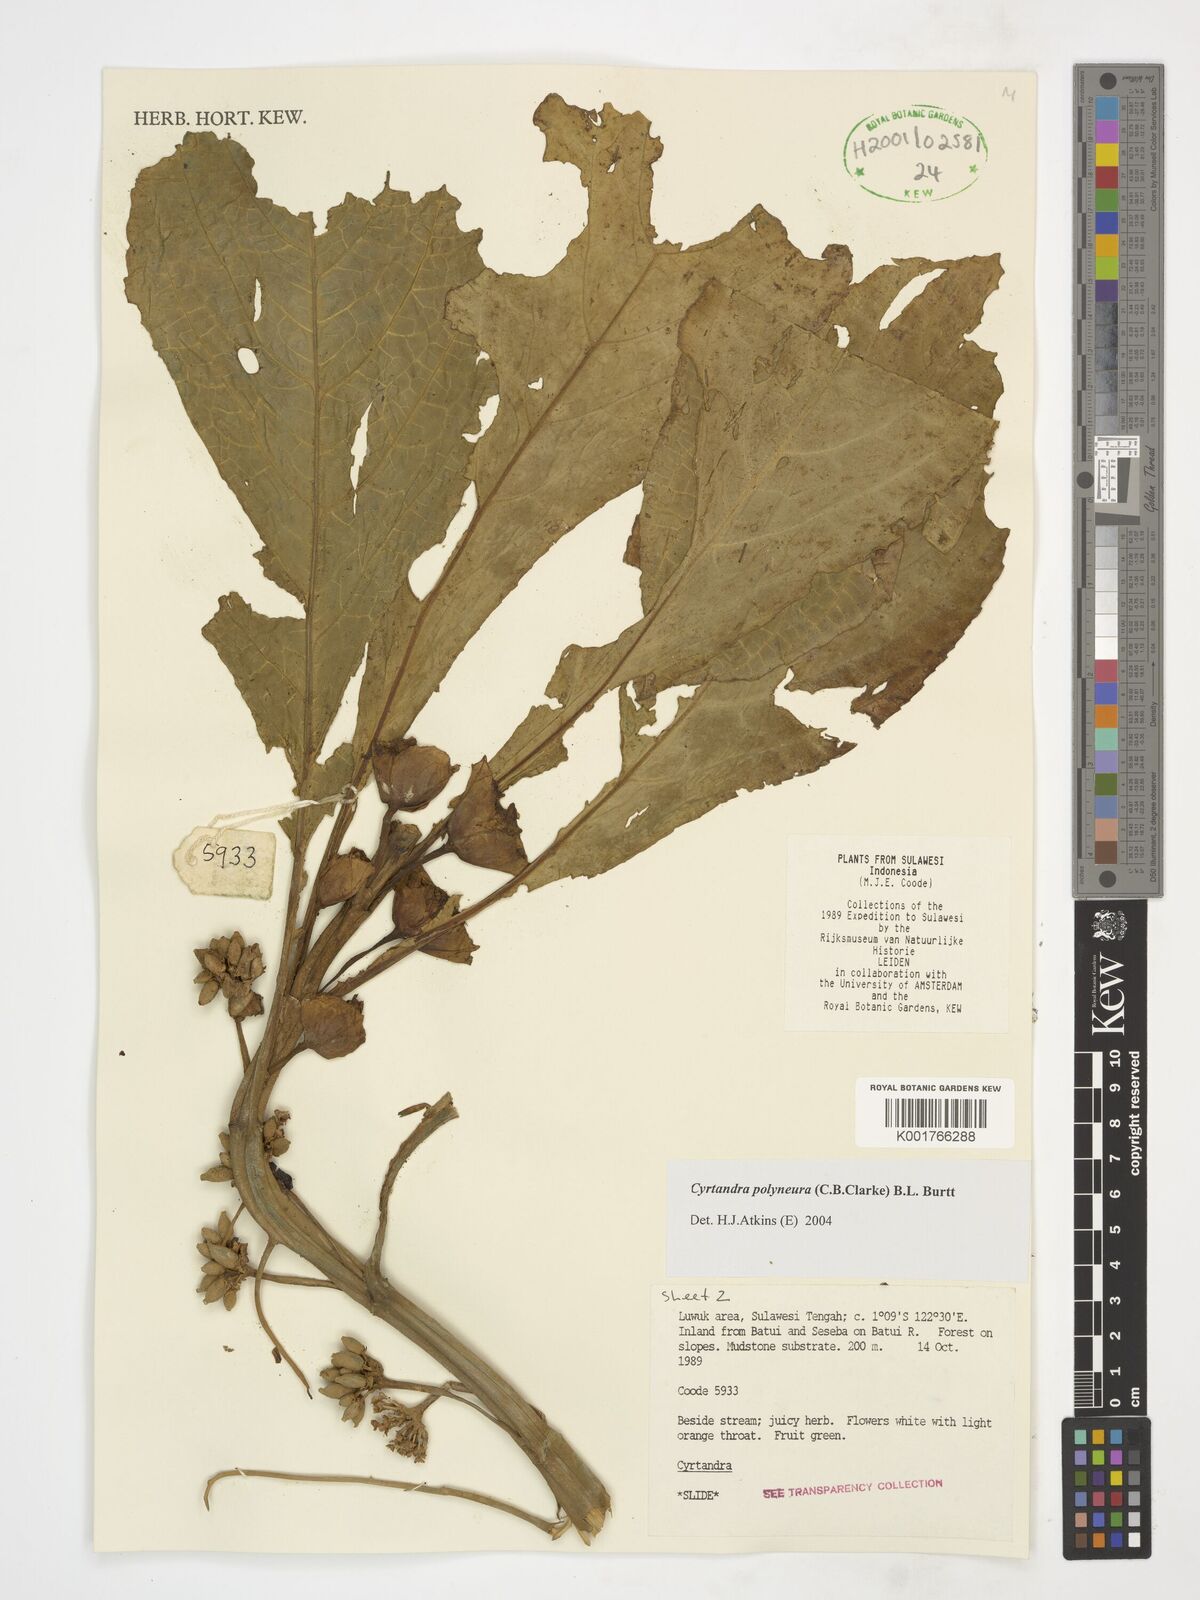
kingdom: Plantae
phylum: Tracheophyta
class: Magnoliopsida
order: Lamiales
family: Gesneriaceae
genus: Cyrtandra
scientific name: Cyrtandra polyneura
